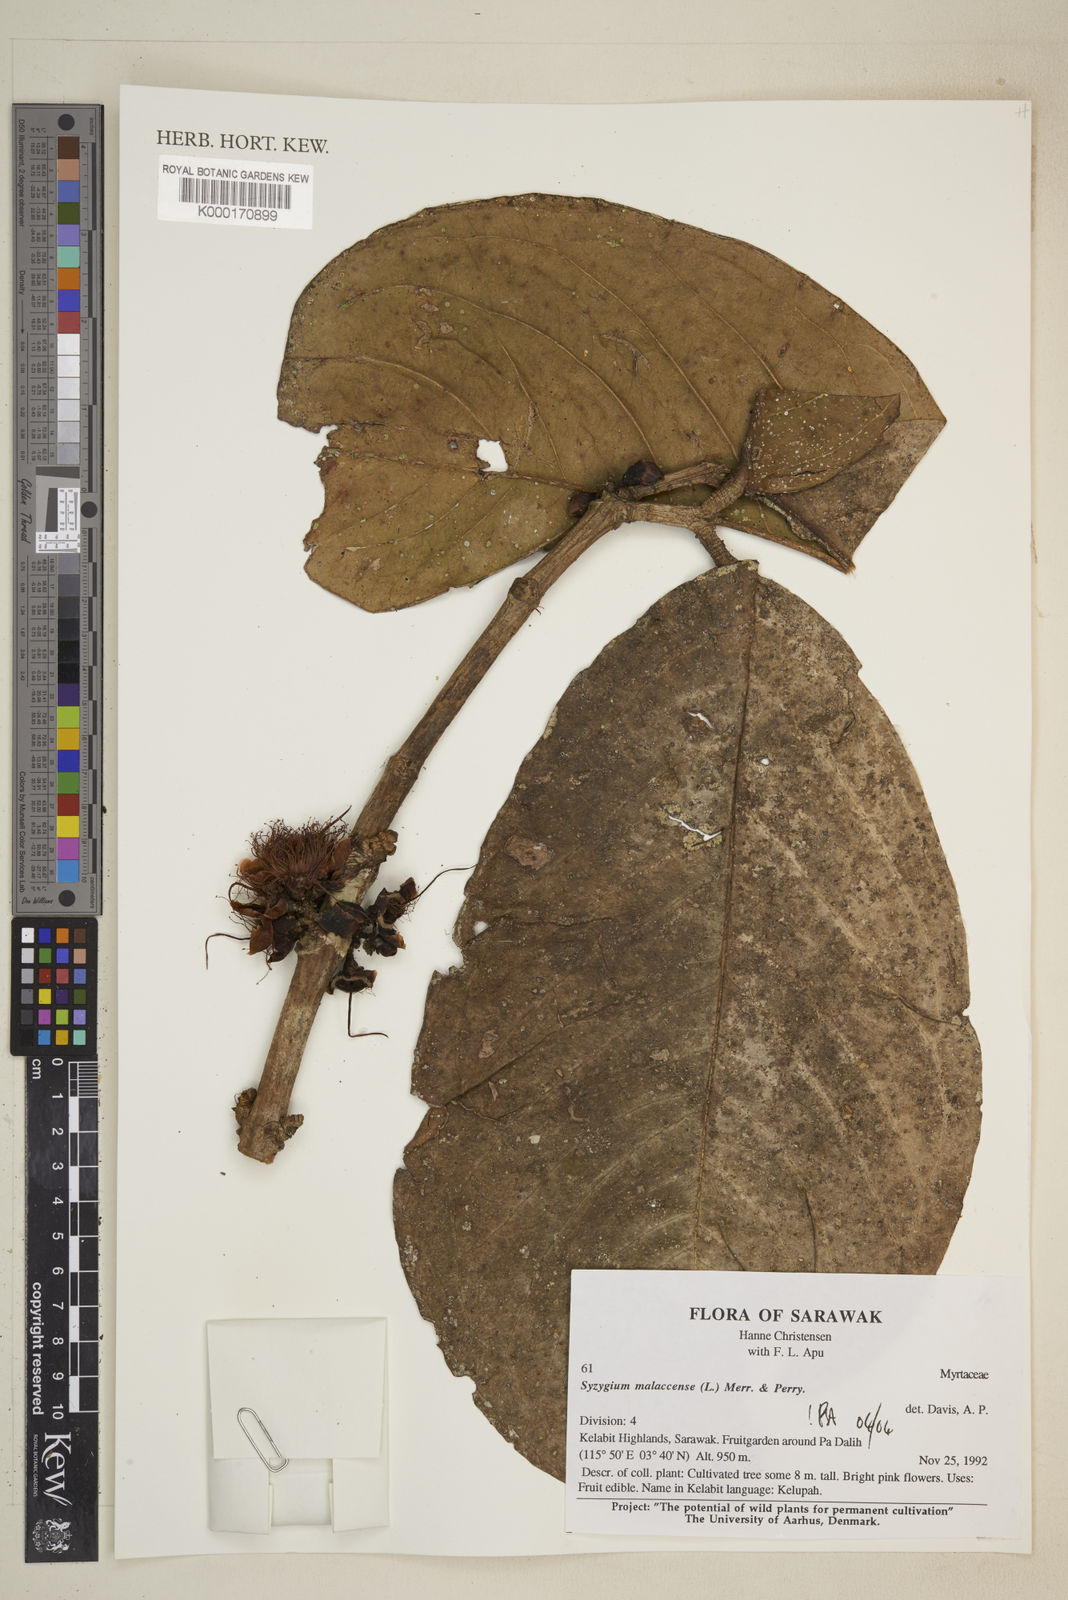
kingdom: Plantae
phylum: Tracheophyta
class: Magnoliopsida
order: Myrtales
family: Myrtaceae
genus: Syzygium
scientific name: Syzygium malaccense
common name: Malaysian apple
